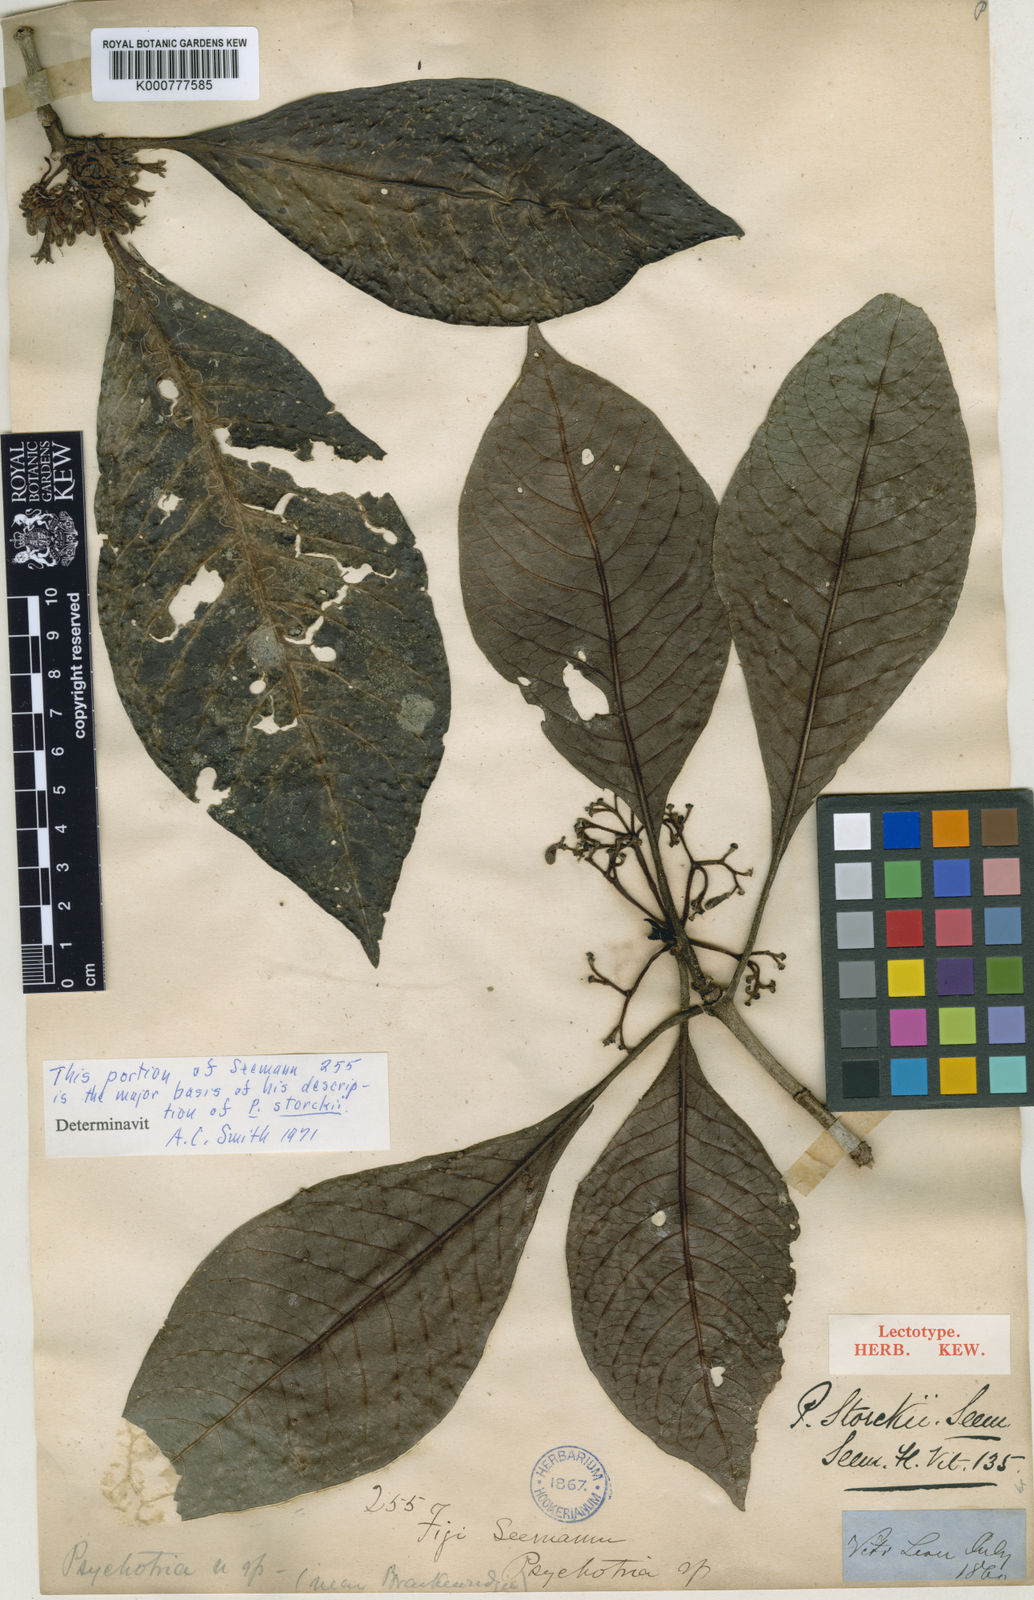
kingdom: Plantae
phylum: Tracheophyta
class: Magnoliopsida
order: Gentianales
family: Rubiaceae
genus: Psychotria
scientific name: Psychotria storckii
